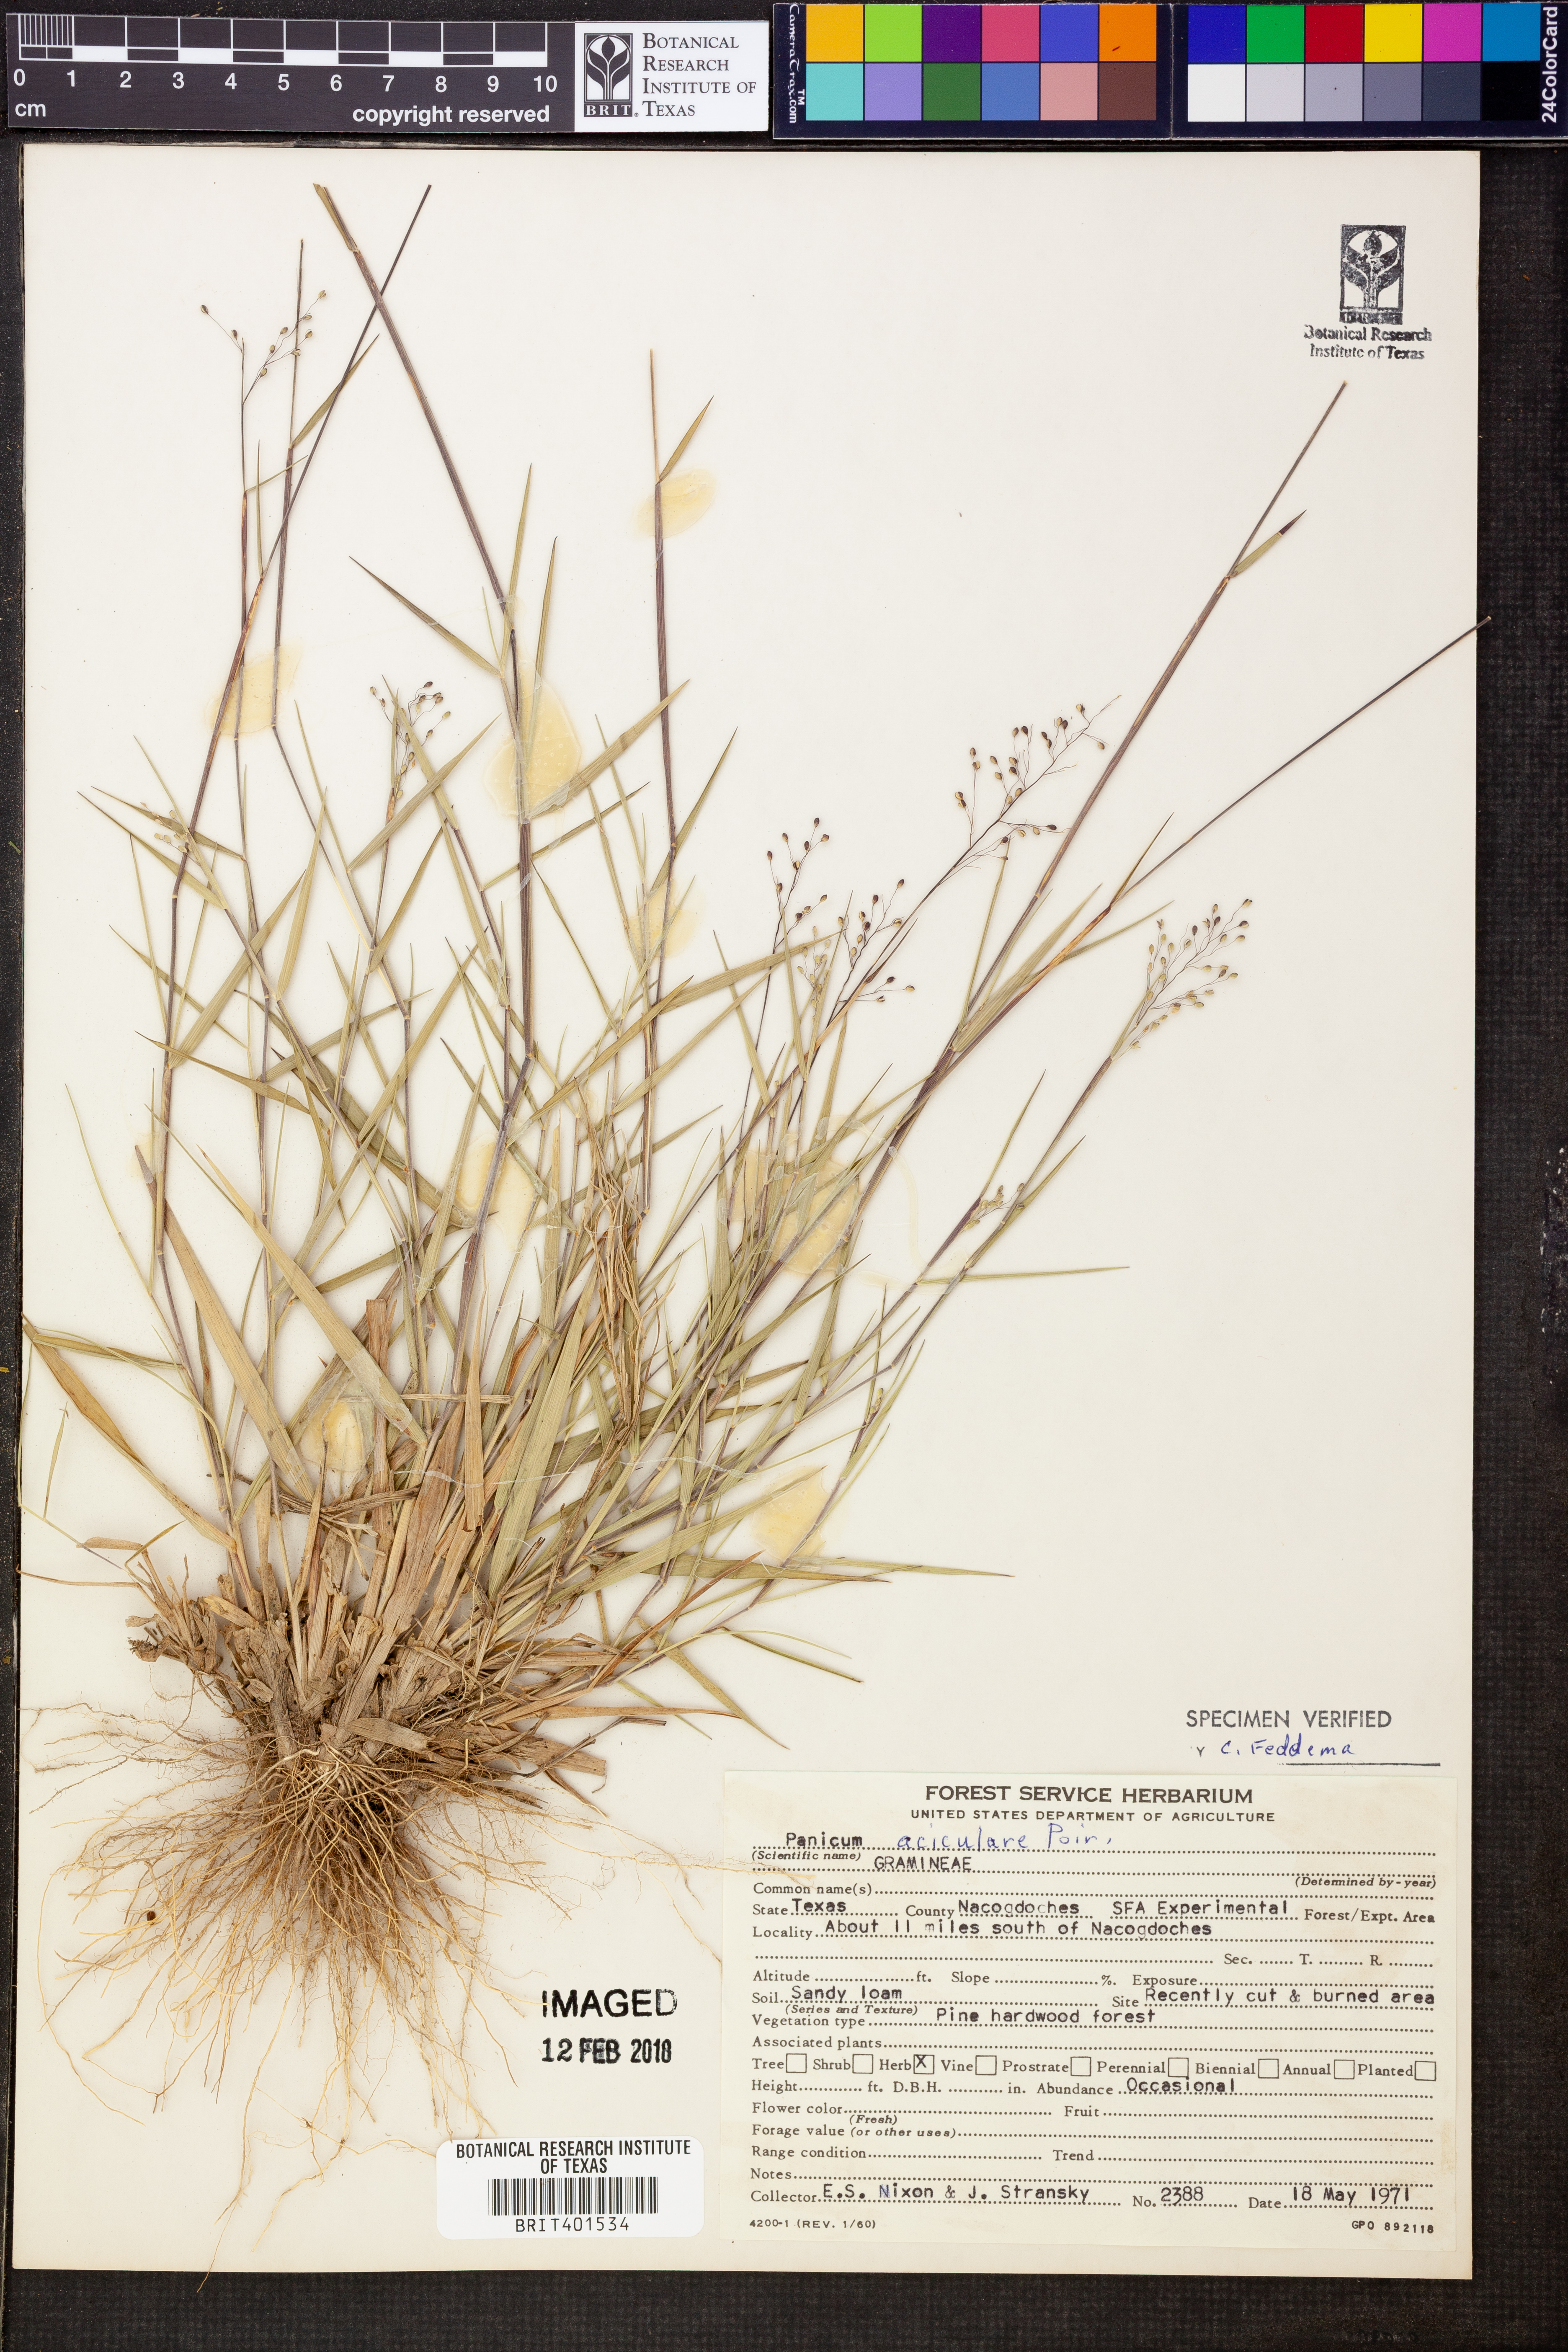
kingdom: Plantae
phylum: Tracheophyta
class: Liliopsida
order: Poales
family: Poaceae
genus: Dichanthelium
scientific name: Dichanthelium aciculare
